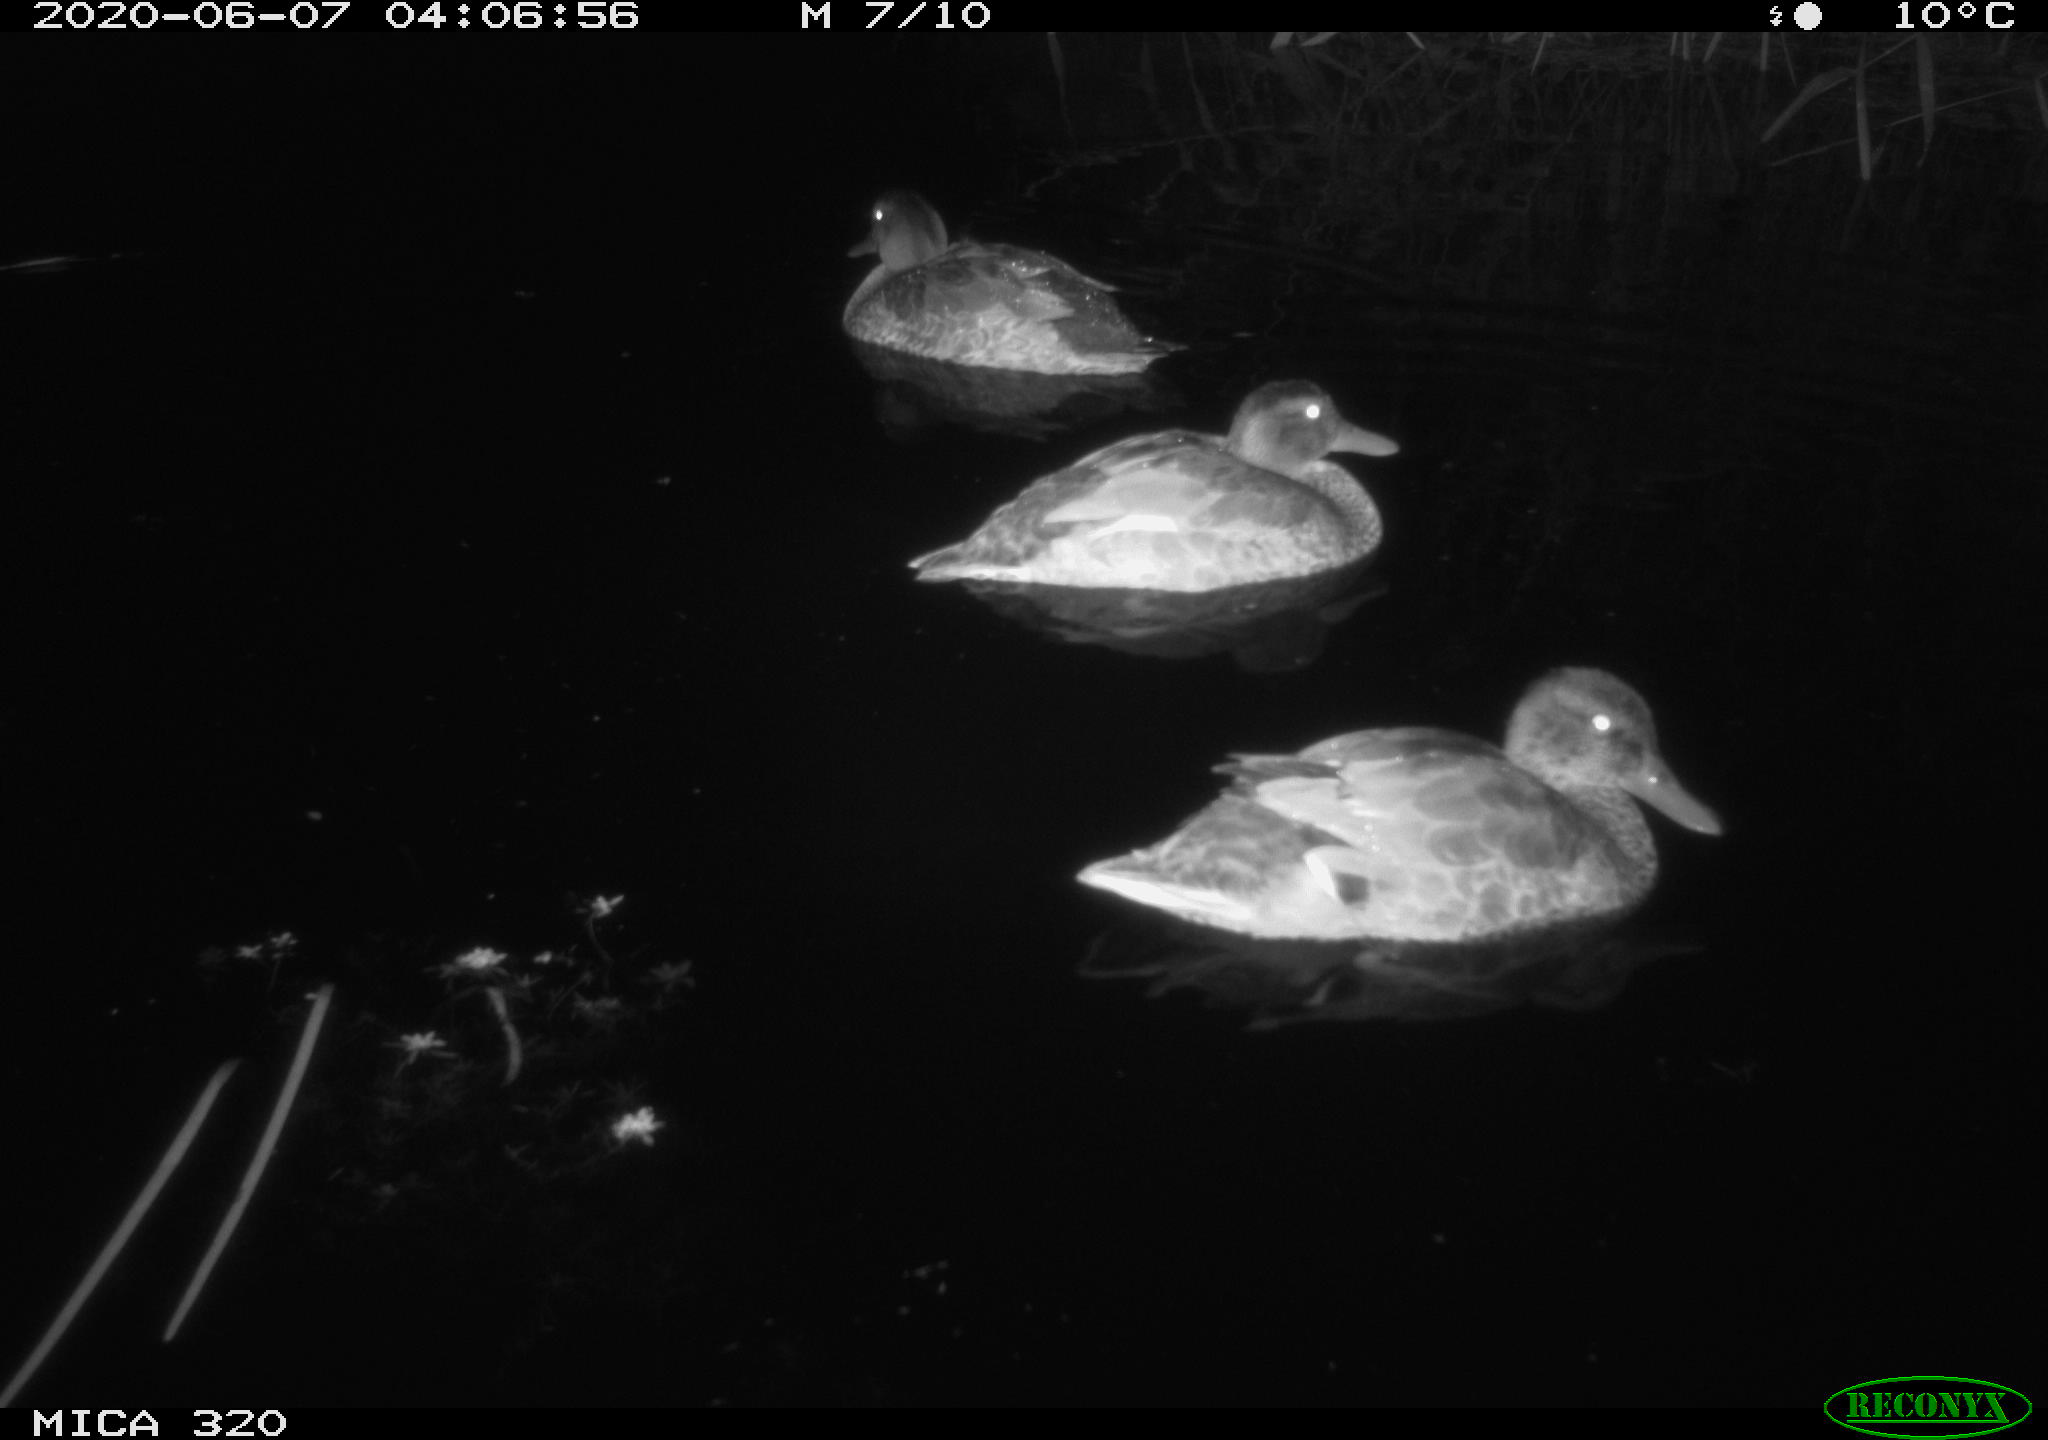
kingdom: Animalia
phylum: Chordata
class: Aves
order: Anseriformes
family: Anatidae
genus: Anas
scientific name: Anas platyrhynchos
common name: Mallard
